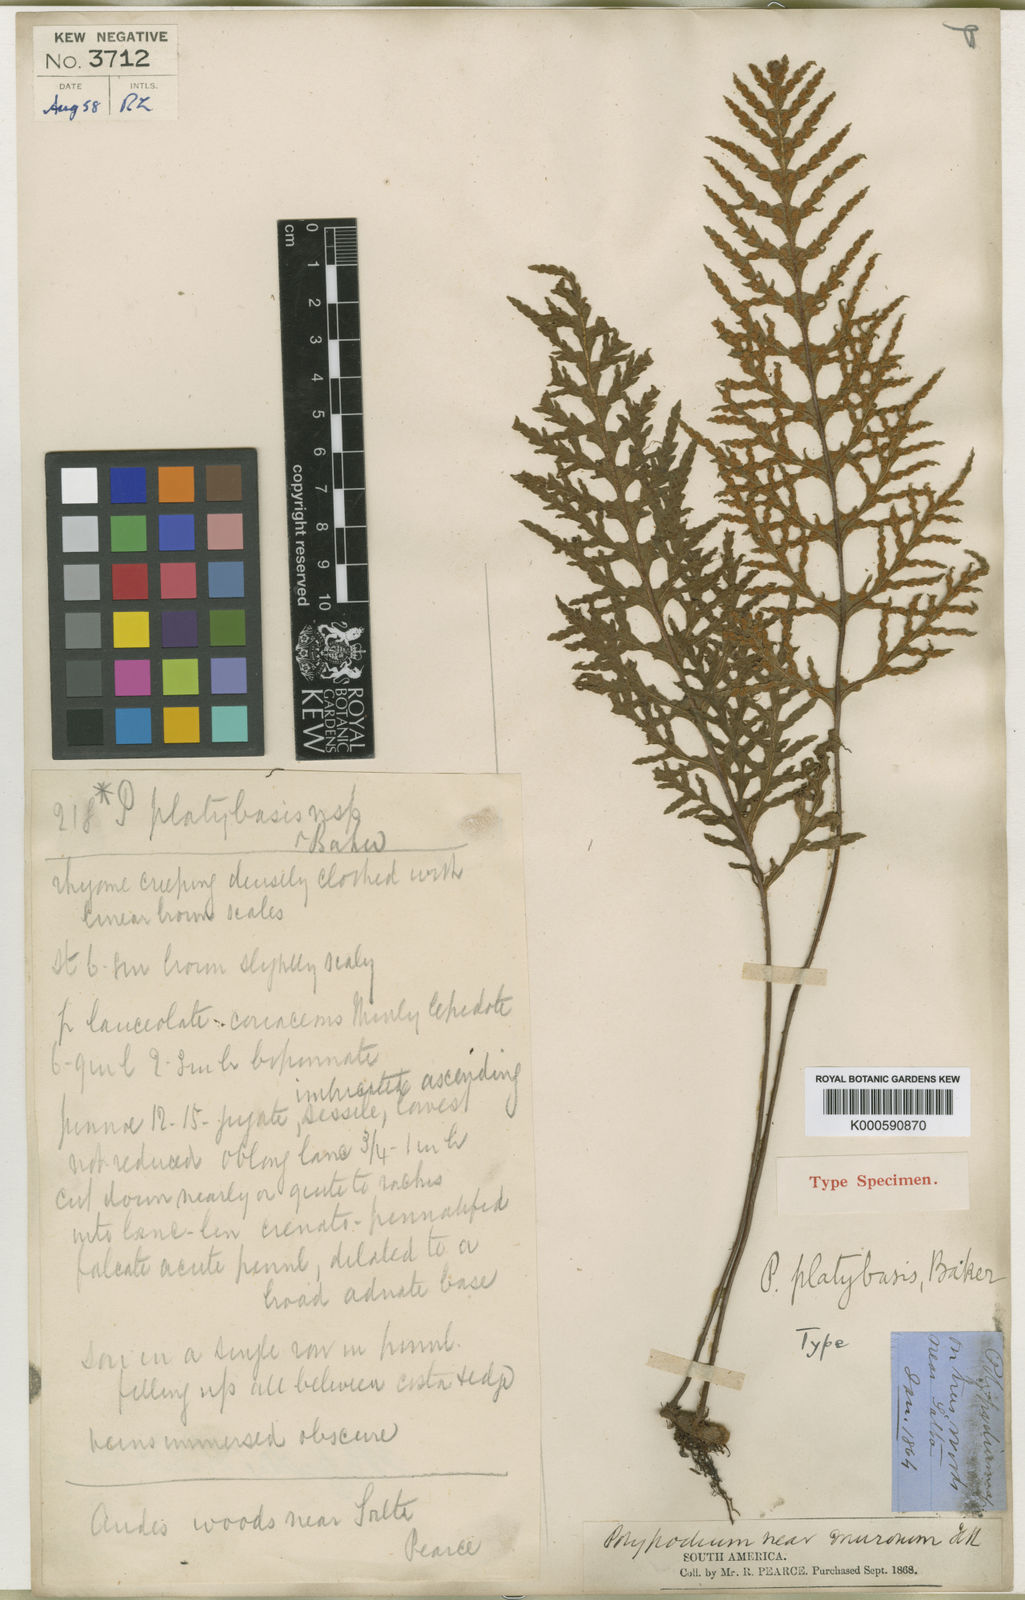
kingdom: Plantae
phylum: Tracheophyta
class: Polypodiopsida
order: Polypodiales
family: Polypodiaceae
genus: Pleopeltis
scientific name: Pleopeltis tweedieana
